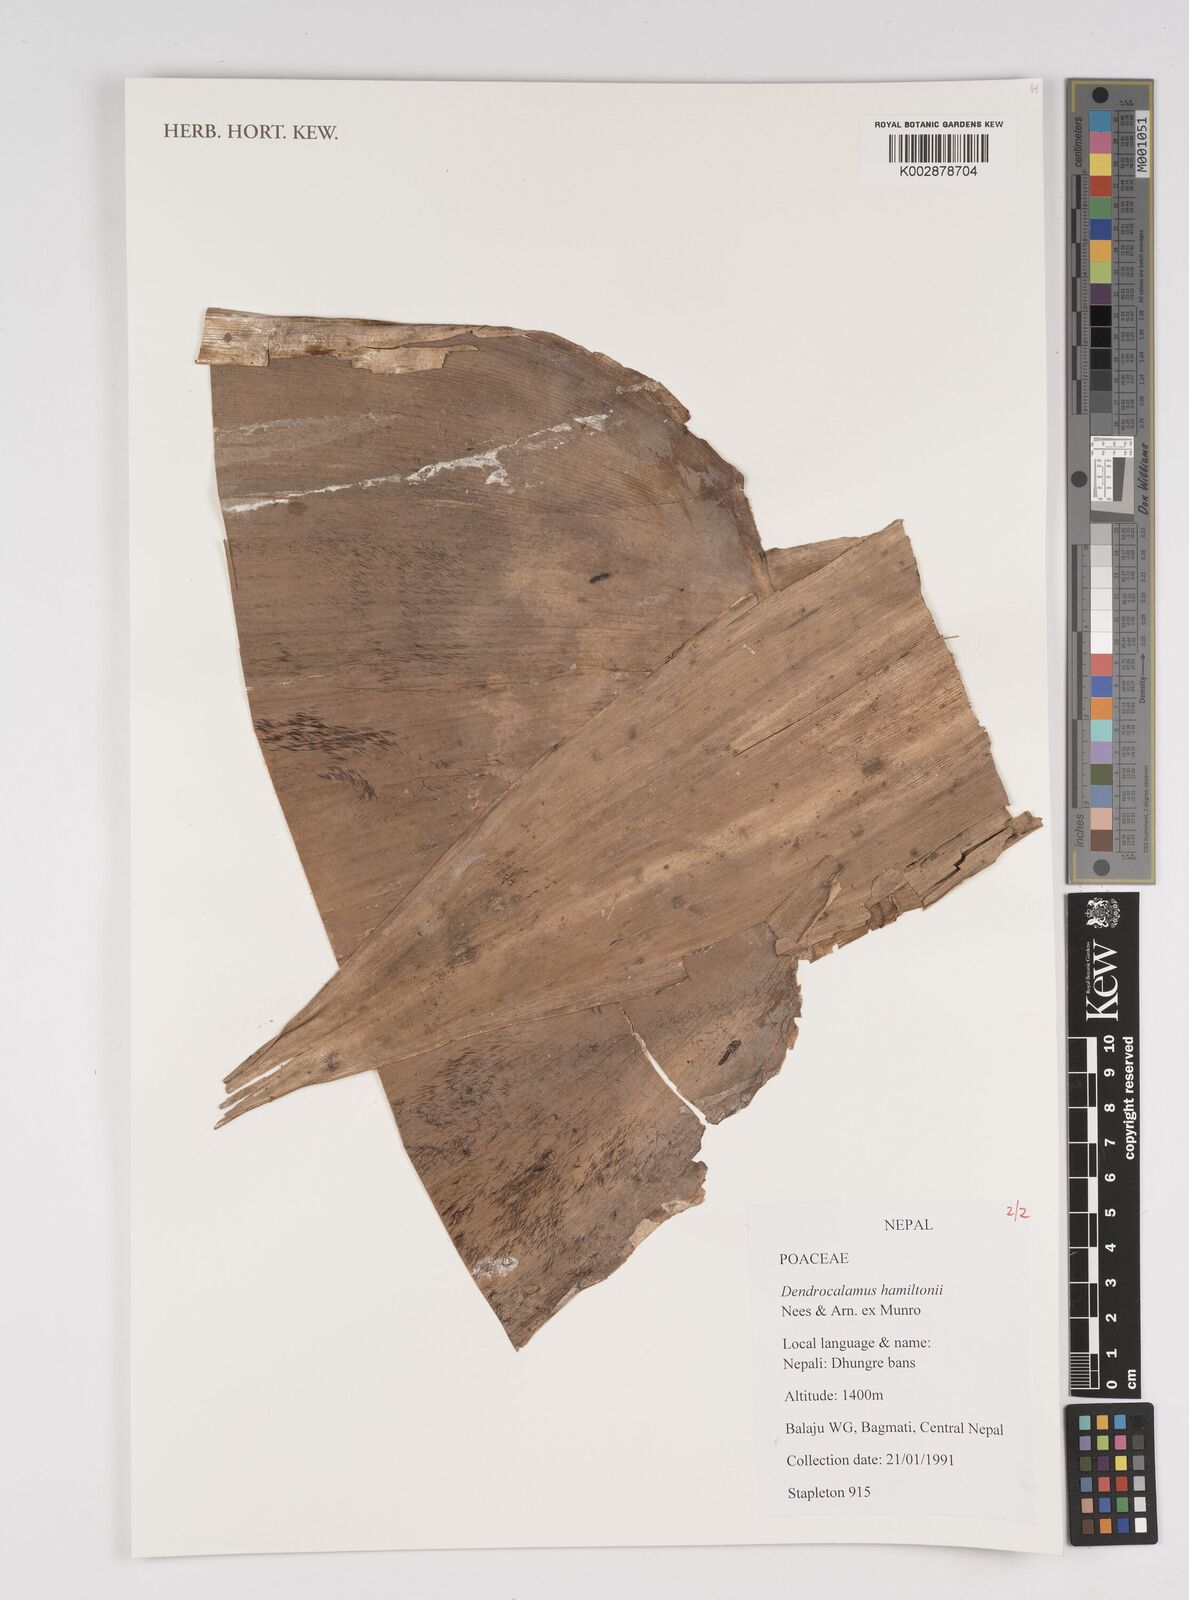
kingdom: Plantae
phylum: Tracheophyta
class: Liliopsida
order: Poales
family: Poaceae
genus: Dendrocalamus
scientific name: Dendrocalamus hamiltonii
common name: Tama bamboo
